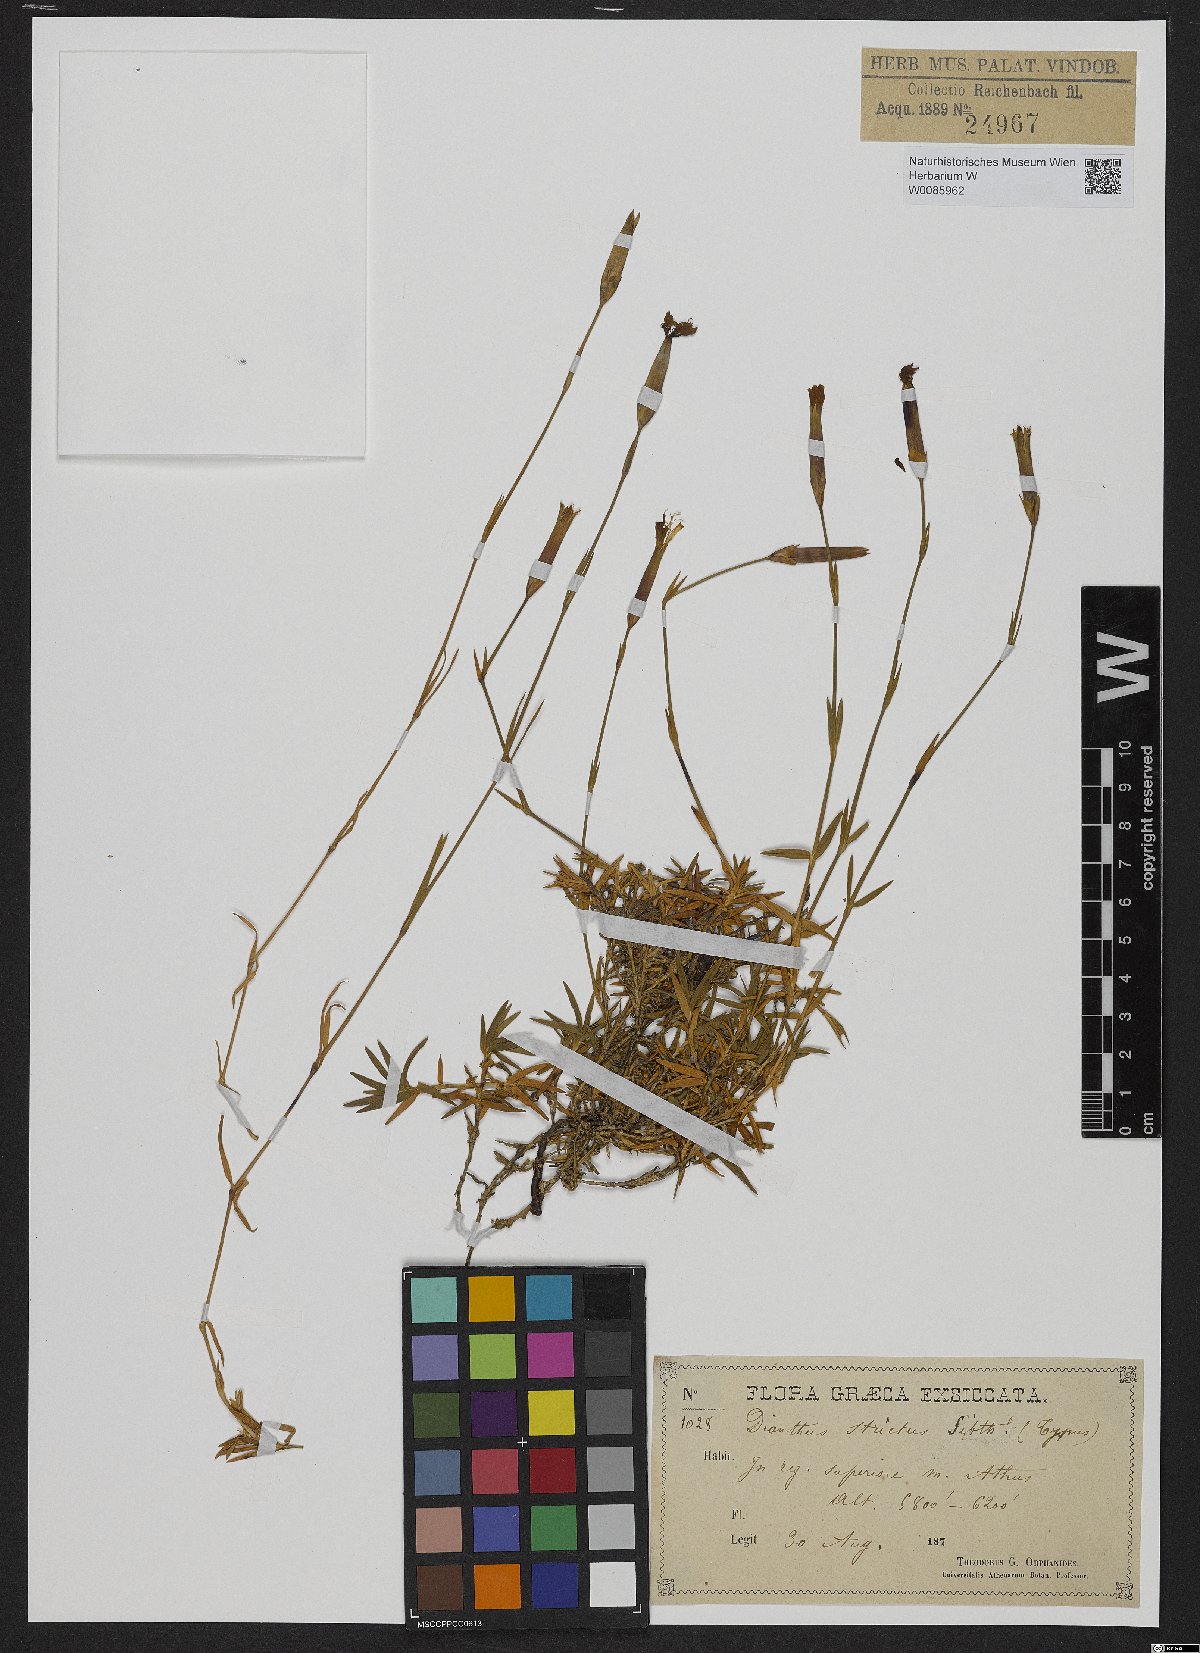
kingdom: Plantae
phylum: Tracheophyta
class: Magnoliopsida
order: Caryophyllales
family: Caryophyllaceae
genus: Dianthus
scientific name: Dianthus petraeus
